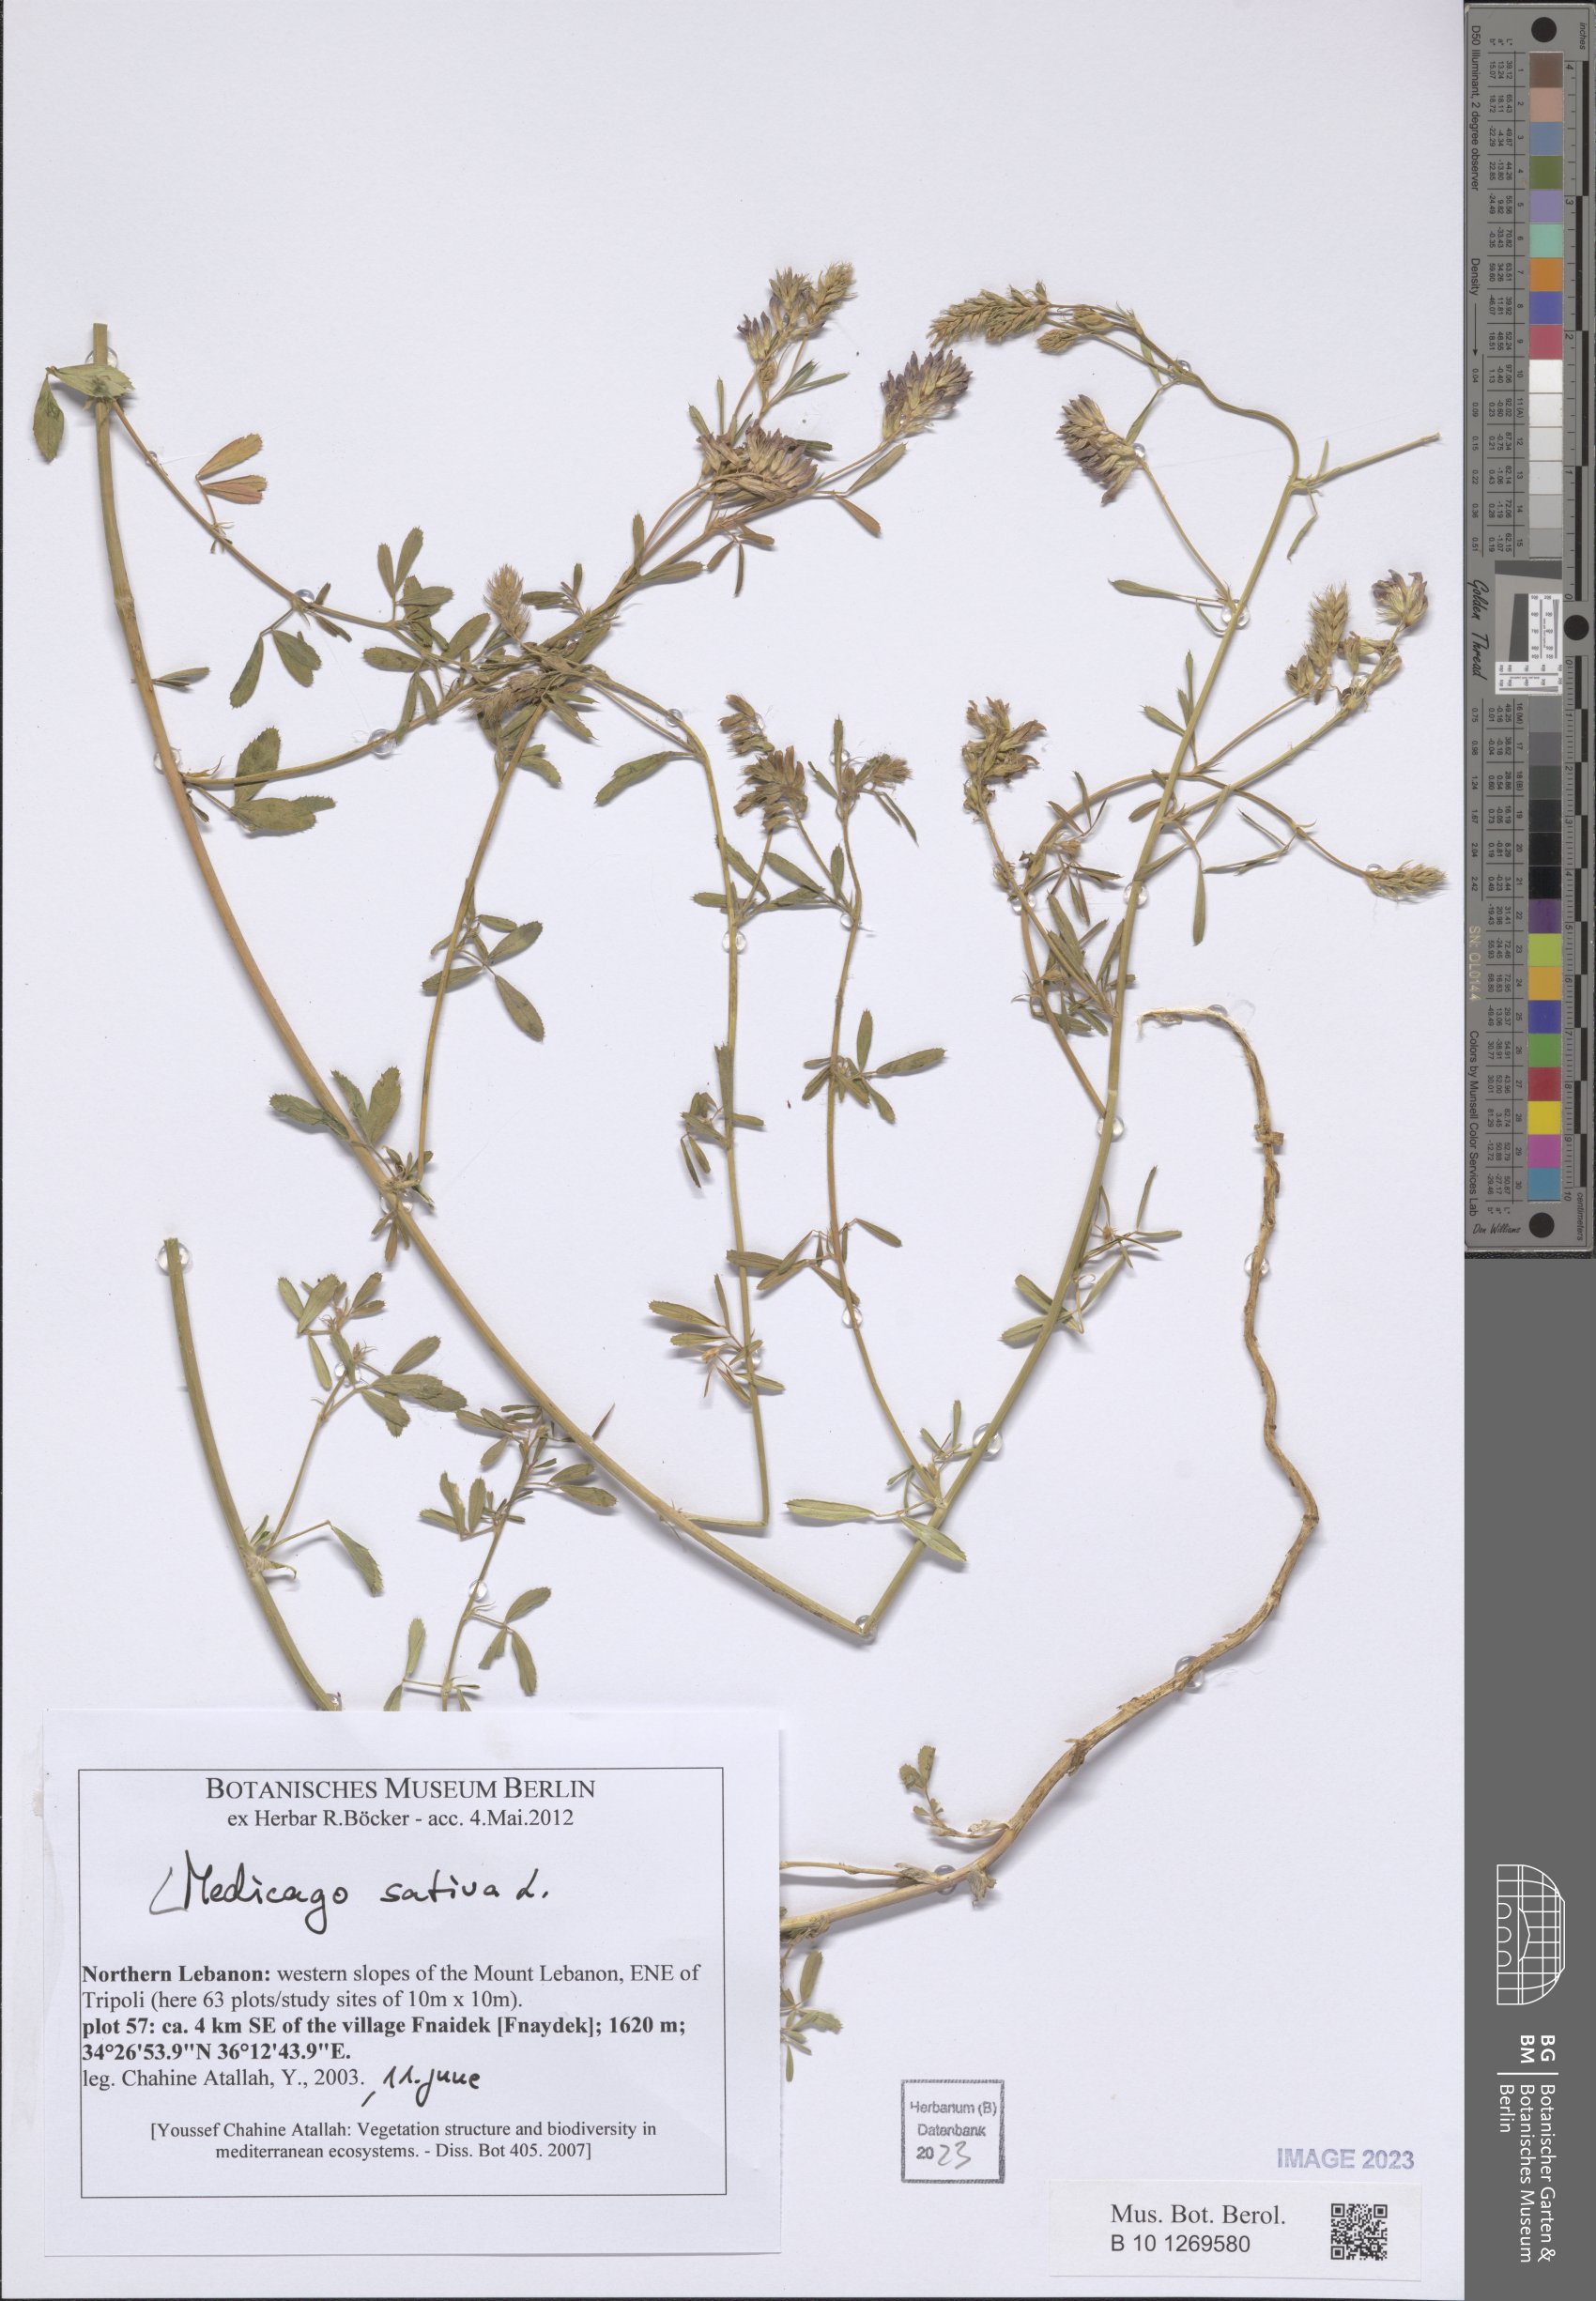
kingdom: Plantae
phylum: Tracheophyta
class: Magnoliopsida
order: Fabales
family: Fabaceae
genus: Medicago
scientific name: Medicago sativa
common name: Alfalfa
